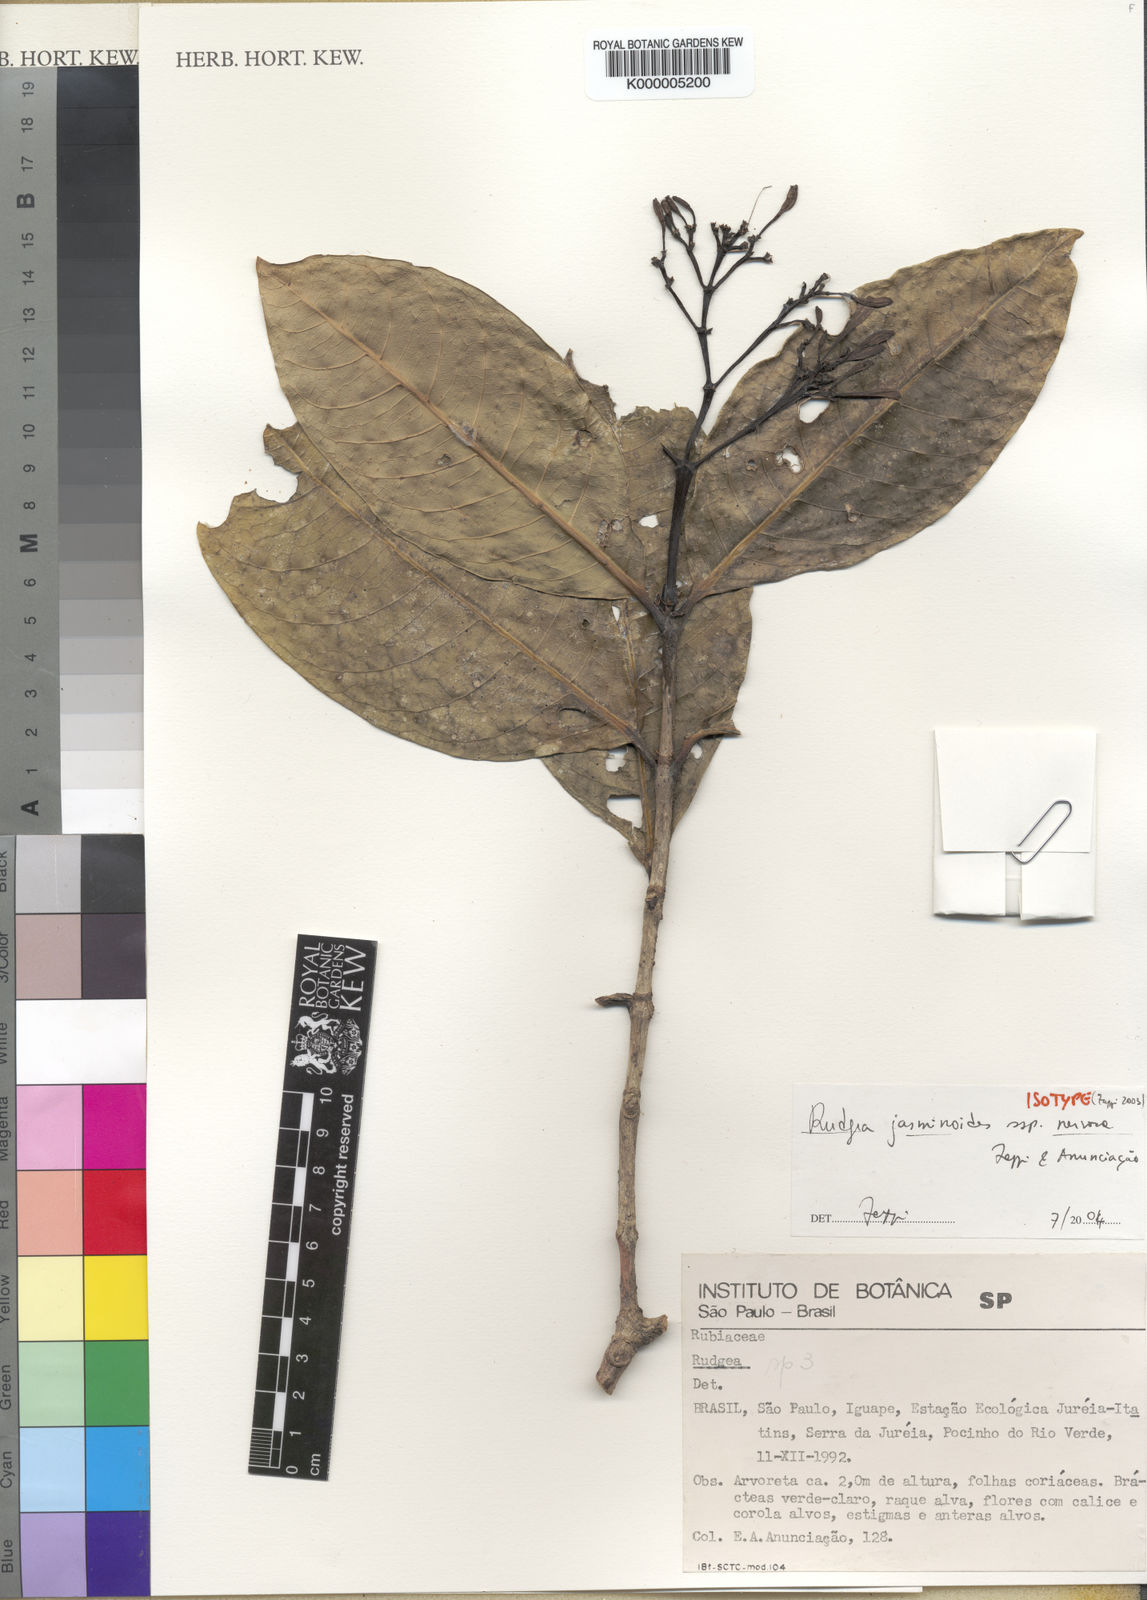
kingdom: Plantae
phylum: Tracheophyta
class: Magnoliopsida
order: Gentianales
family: Rubiaceae
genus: Rudgea
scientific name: Rudgea
